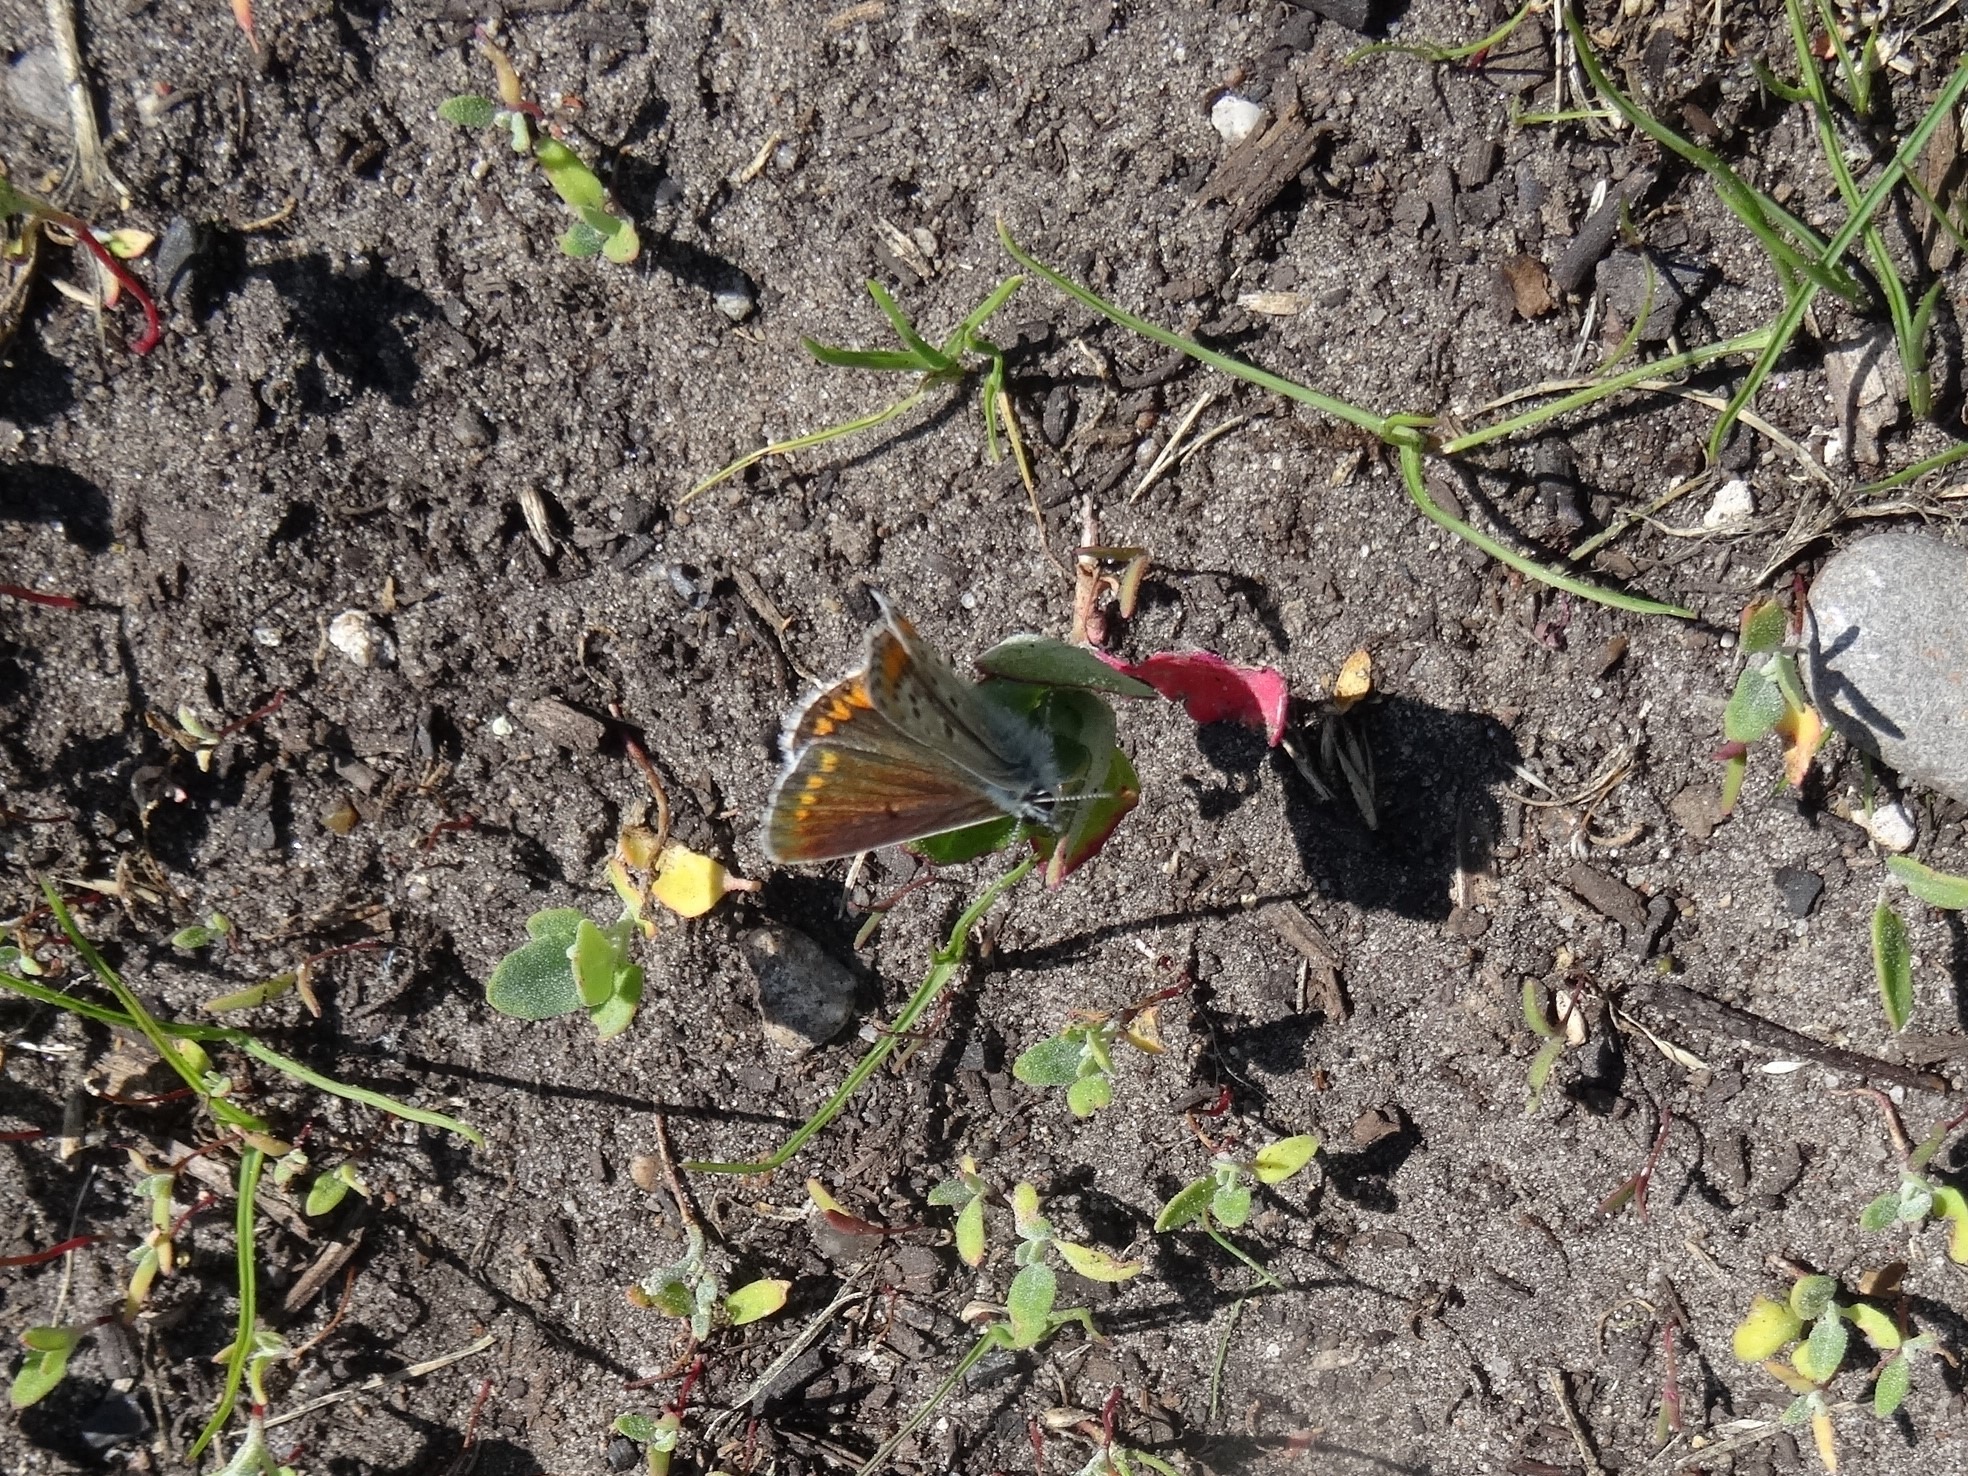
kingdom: Animalia
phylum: Arthropoda
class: Insecta
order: Lepidoptera
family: Lycaenidae
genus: Aricia
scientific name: Aricia agestis
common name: Rødplettet blåfugl
